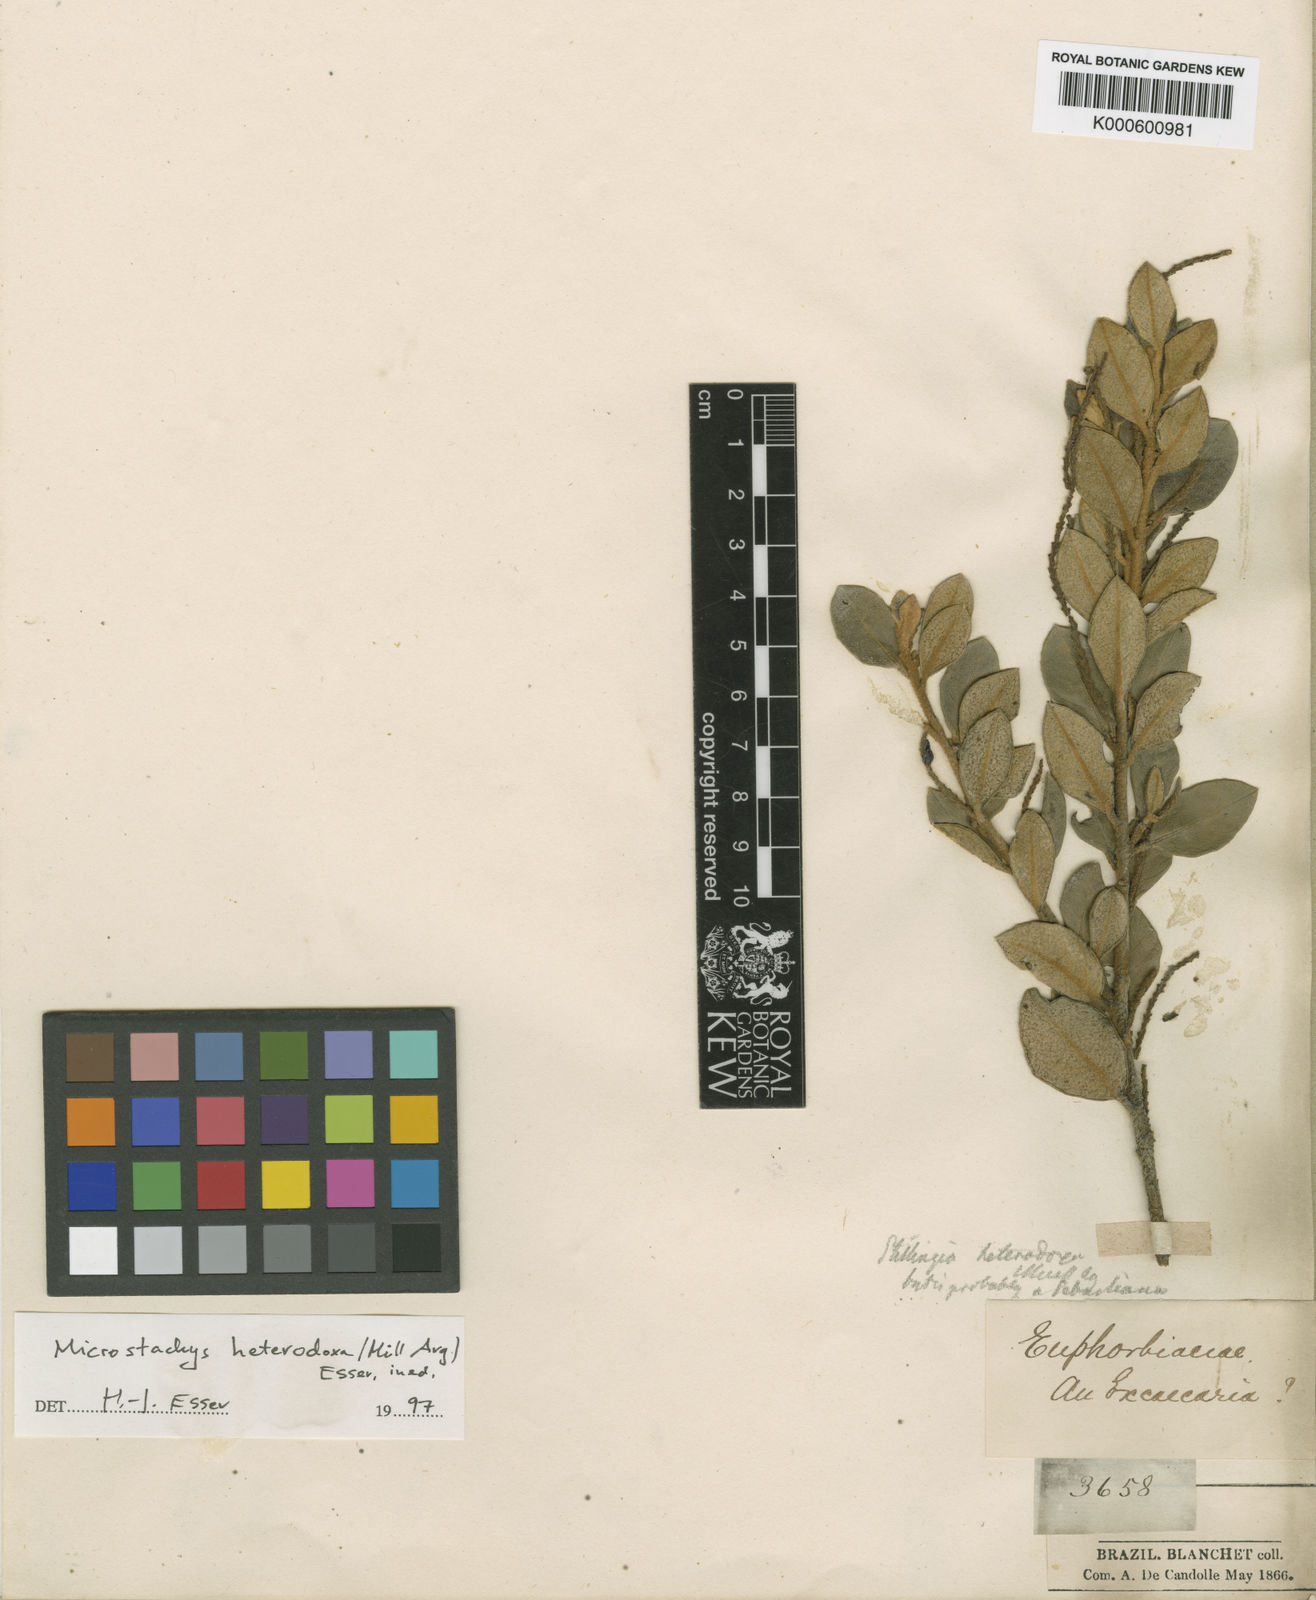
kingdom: Plantae
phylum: Tracheophyta
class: Magnoliopsida
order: Malpighiales
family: Euphorbiaceae
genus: Sebastiania
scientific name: Sebastiania
